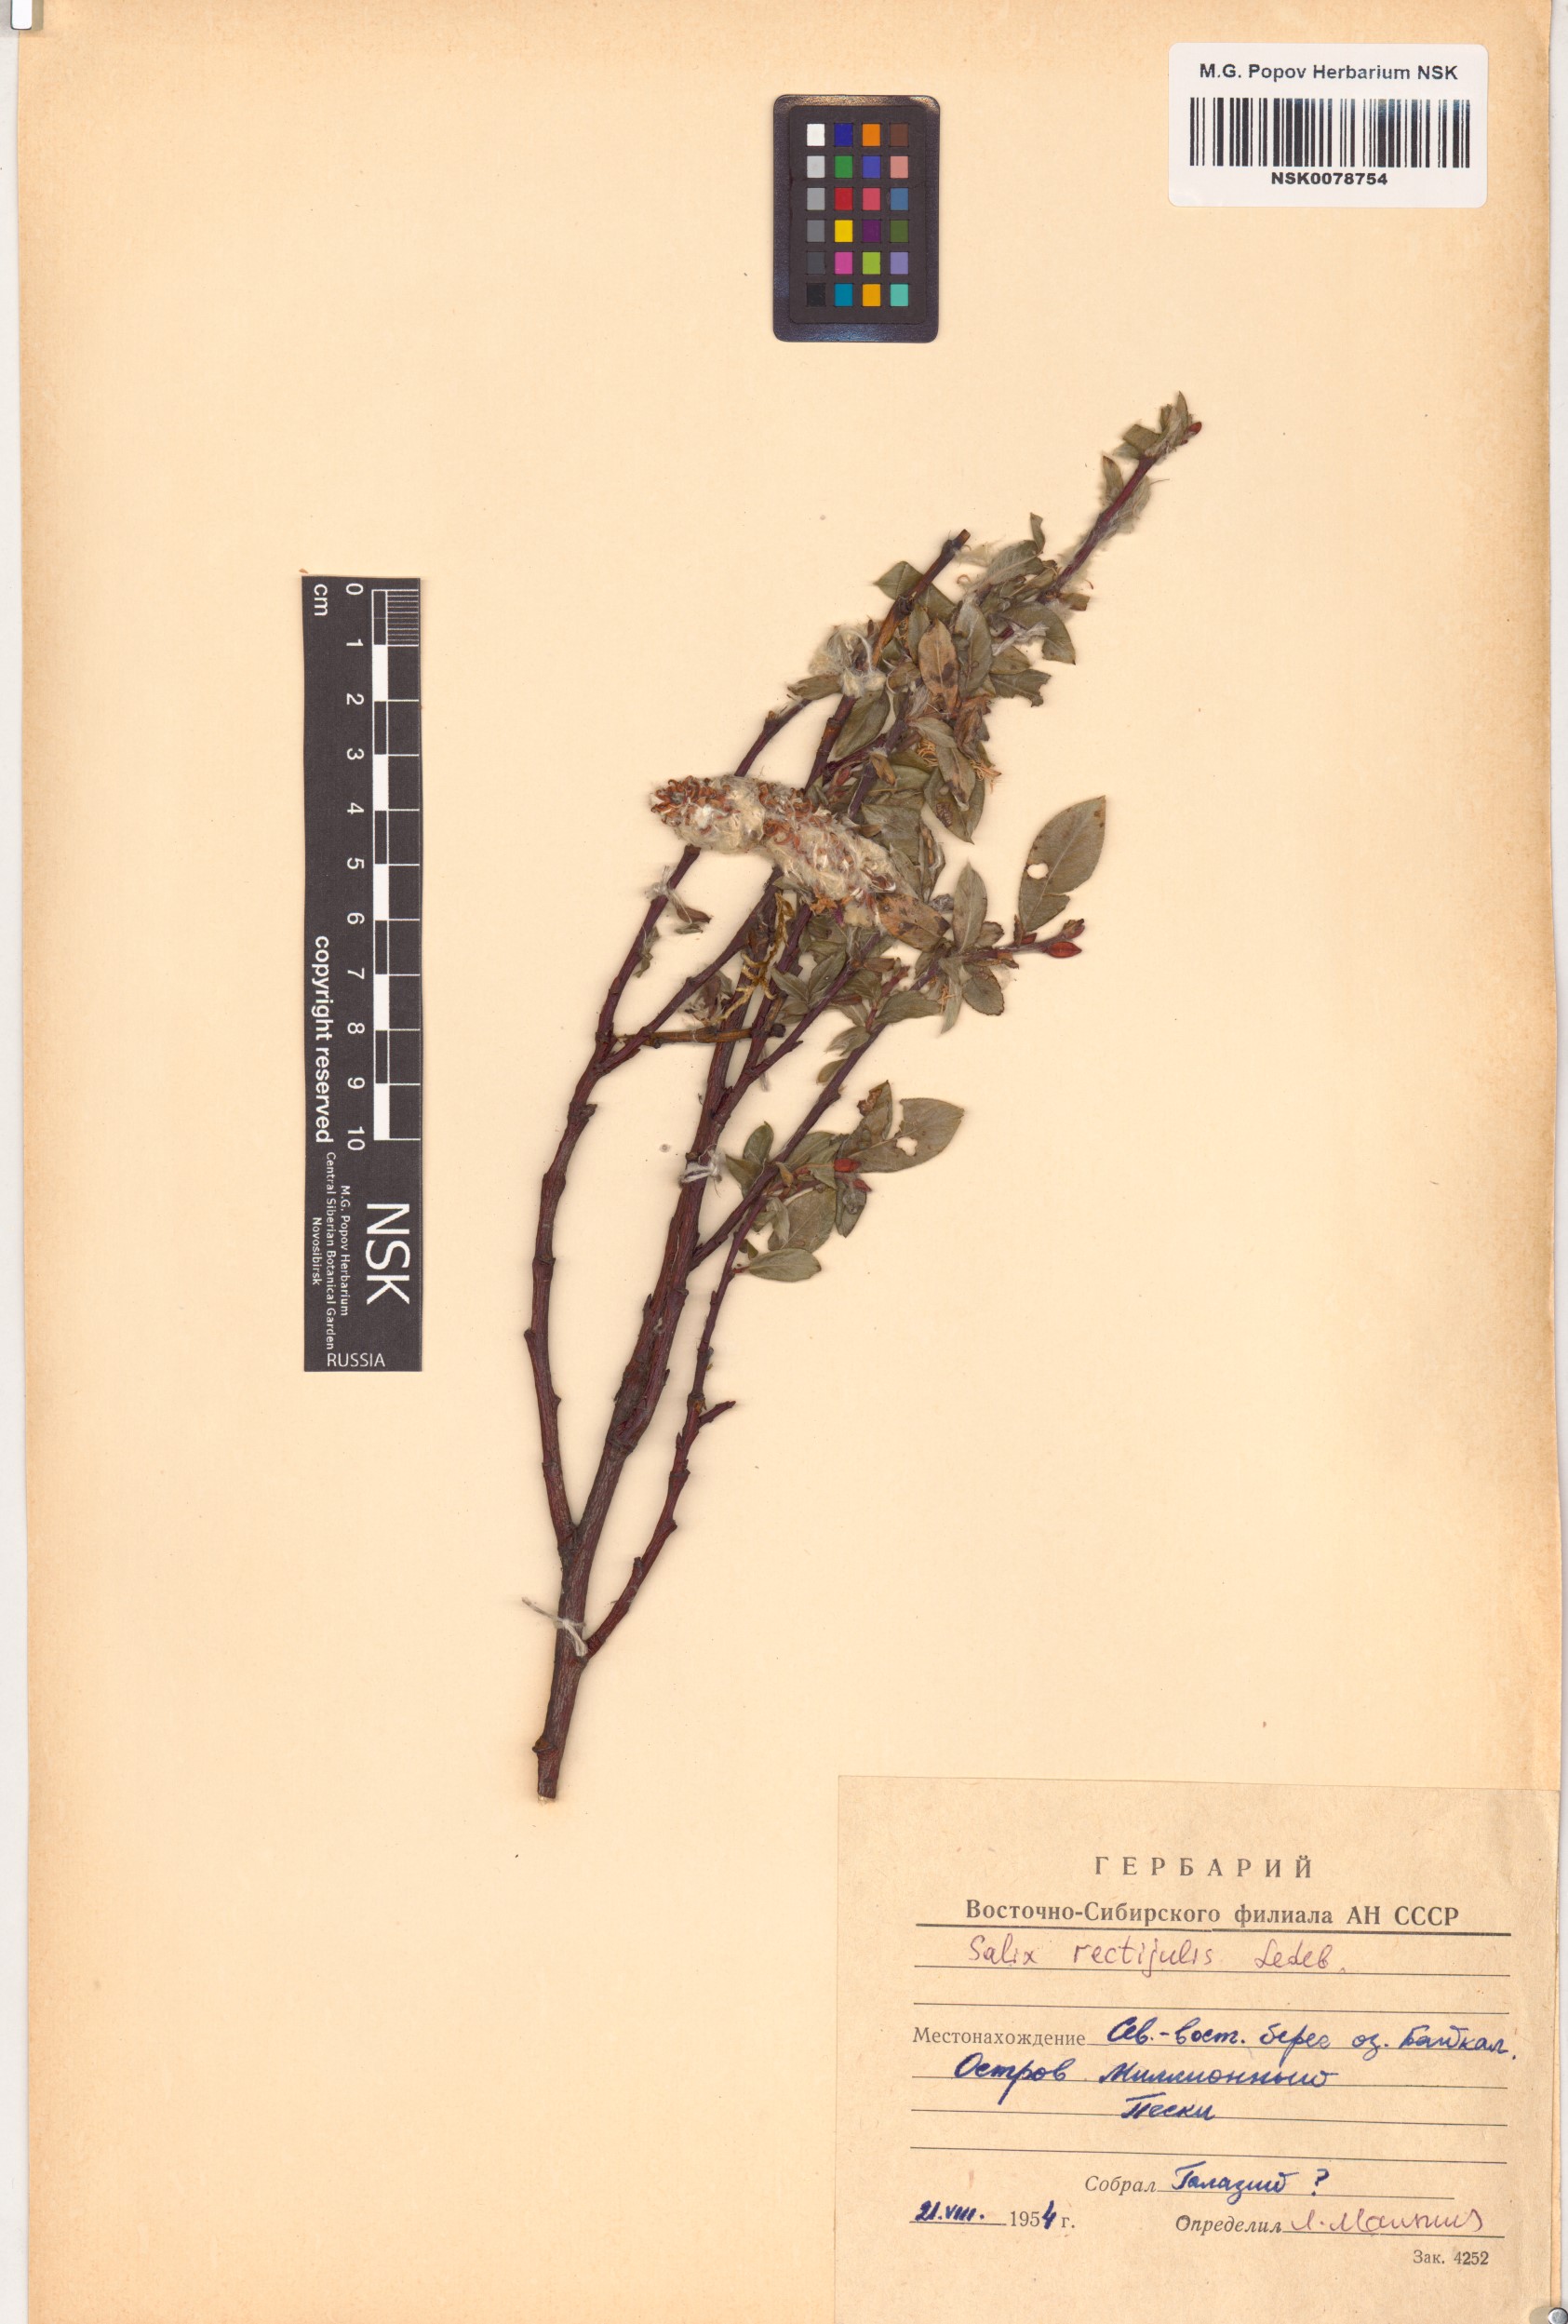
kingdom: Plantae
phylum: Tracheophyta
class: Magnoliopsida
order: Malpighiales
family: Salicaceae
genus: Salix
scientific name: Salix rectijulis
